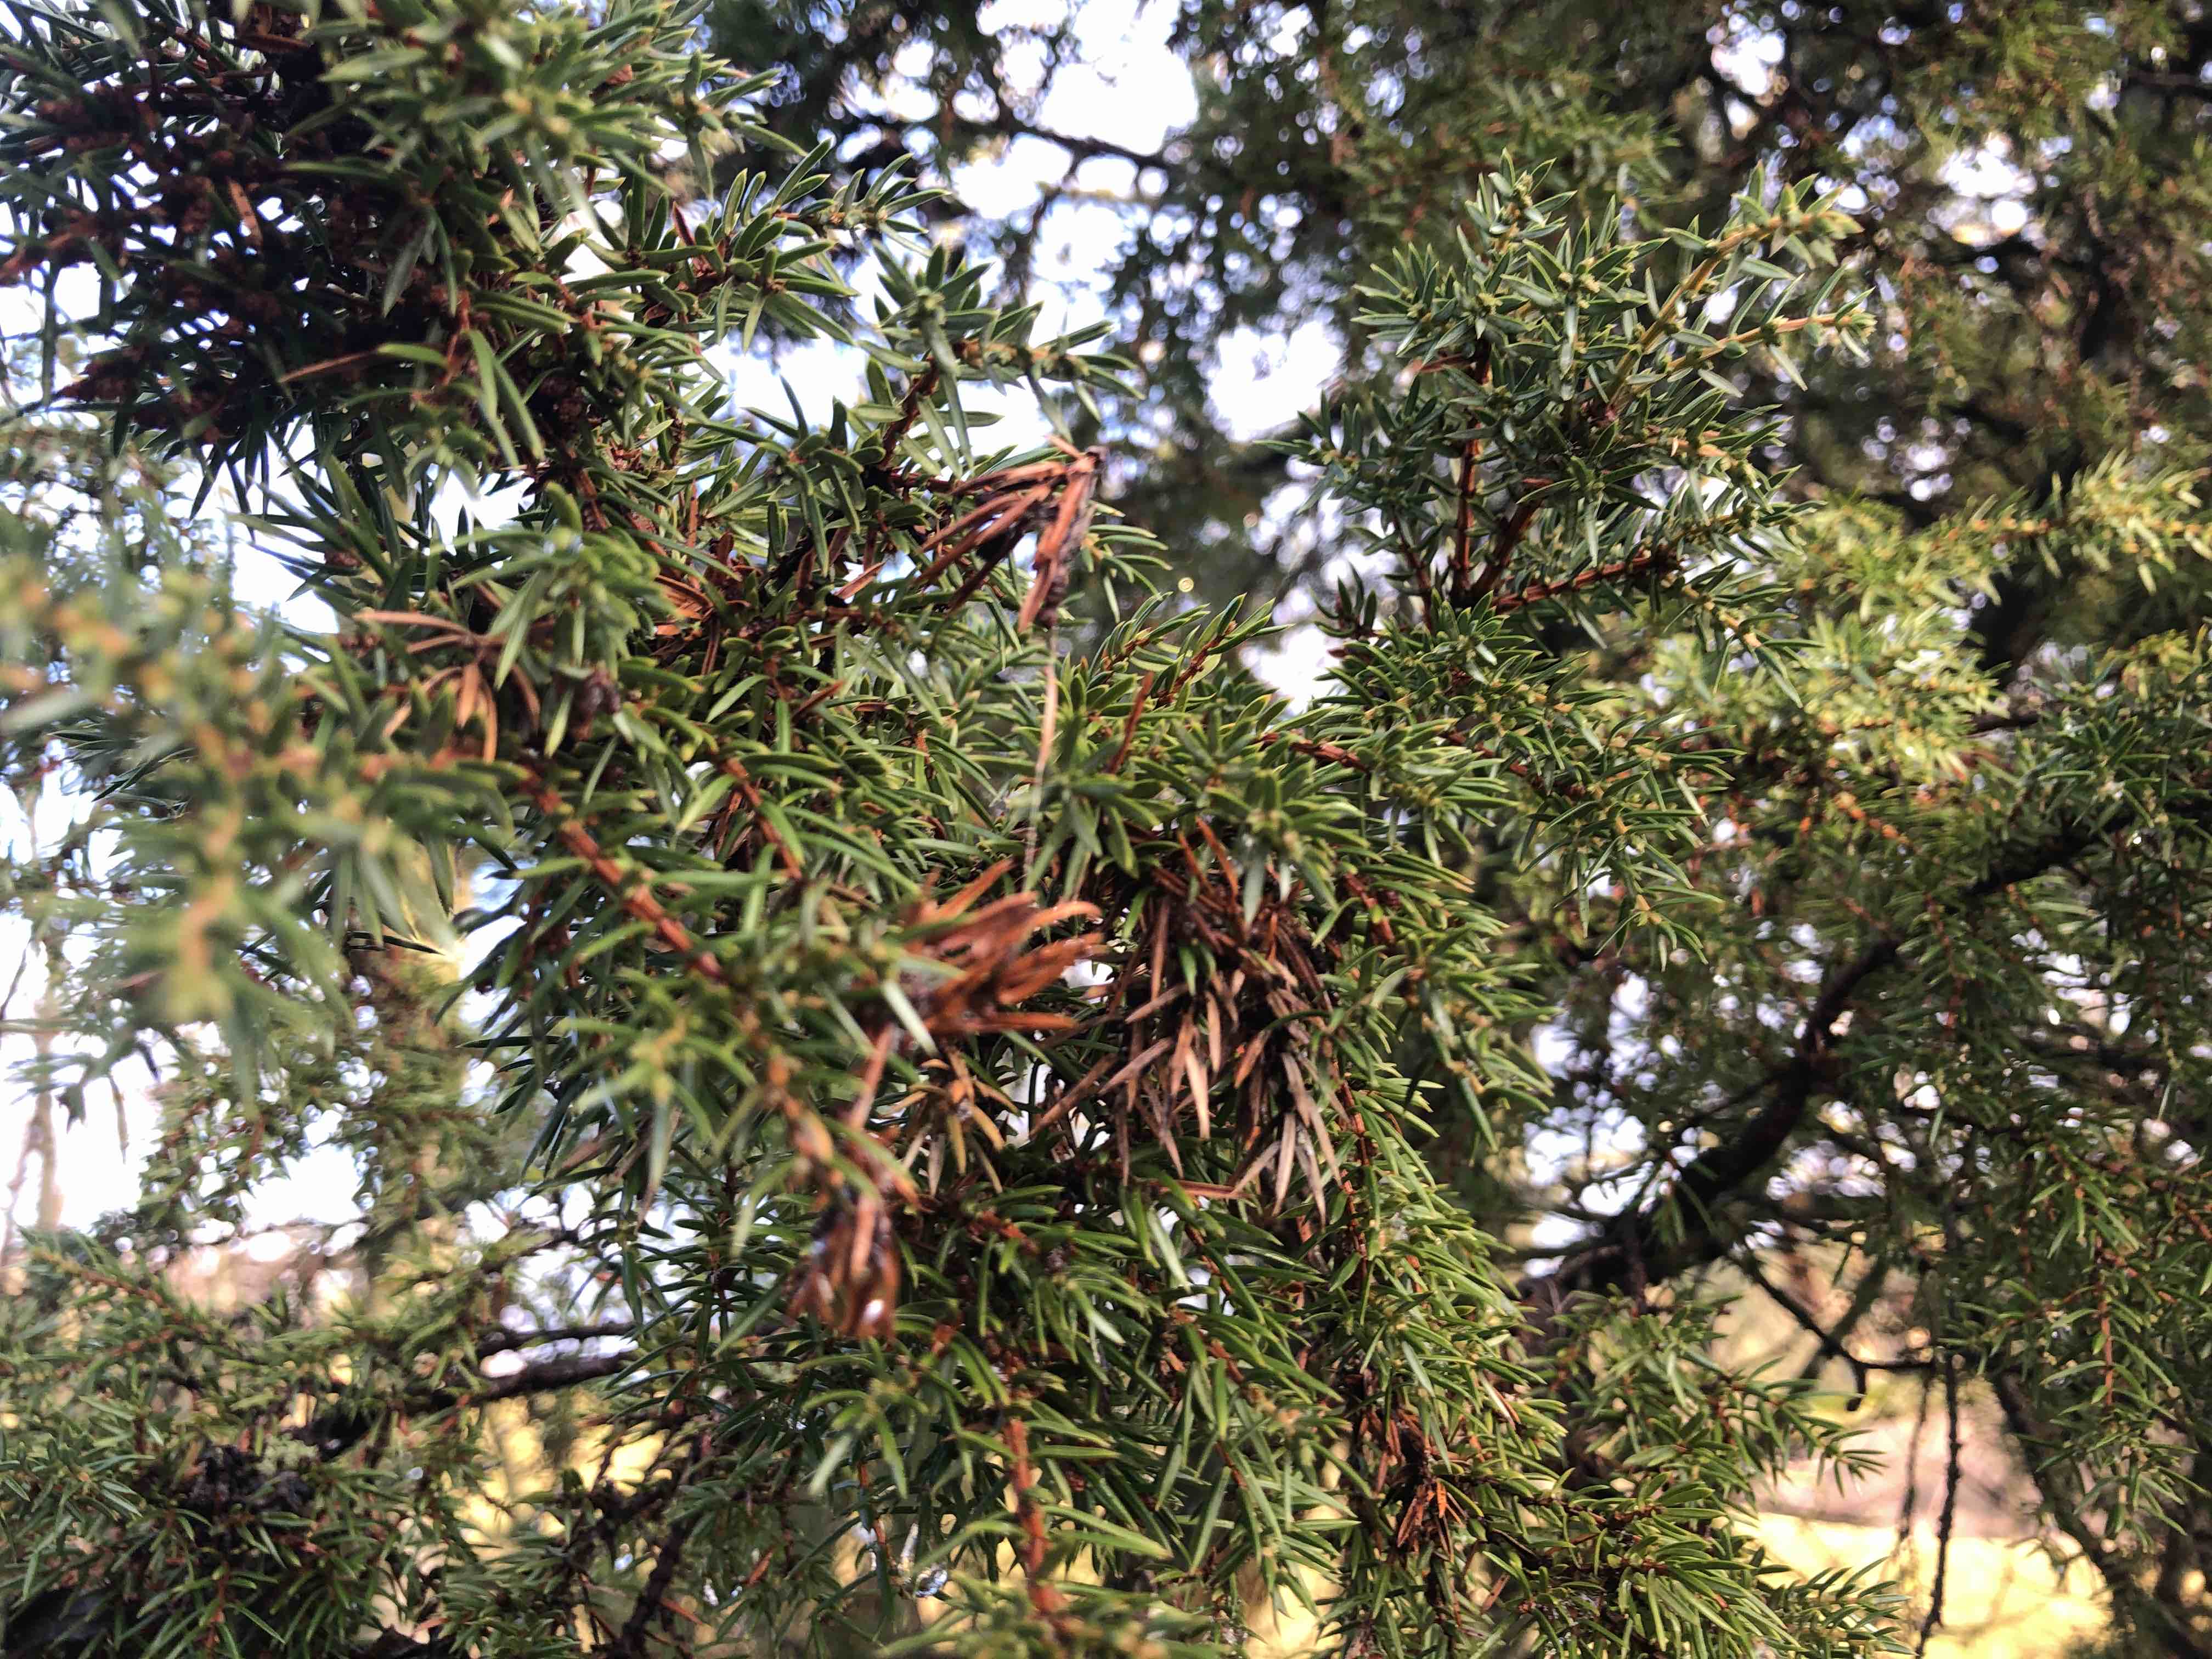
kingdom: Fungi
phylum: Ascomycota
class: Leotiomycetes
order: Rhytismatales
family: Rhytismataceae
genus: Lophodermium
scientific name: Lophodermium juniperinum
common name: ene-fureplet
